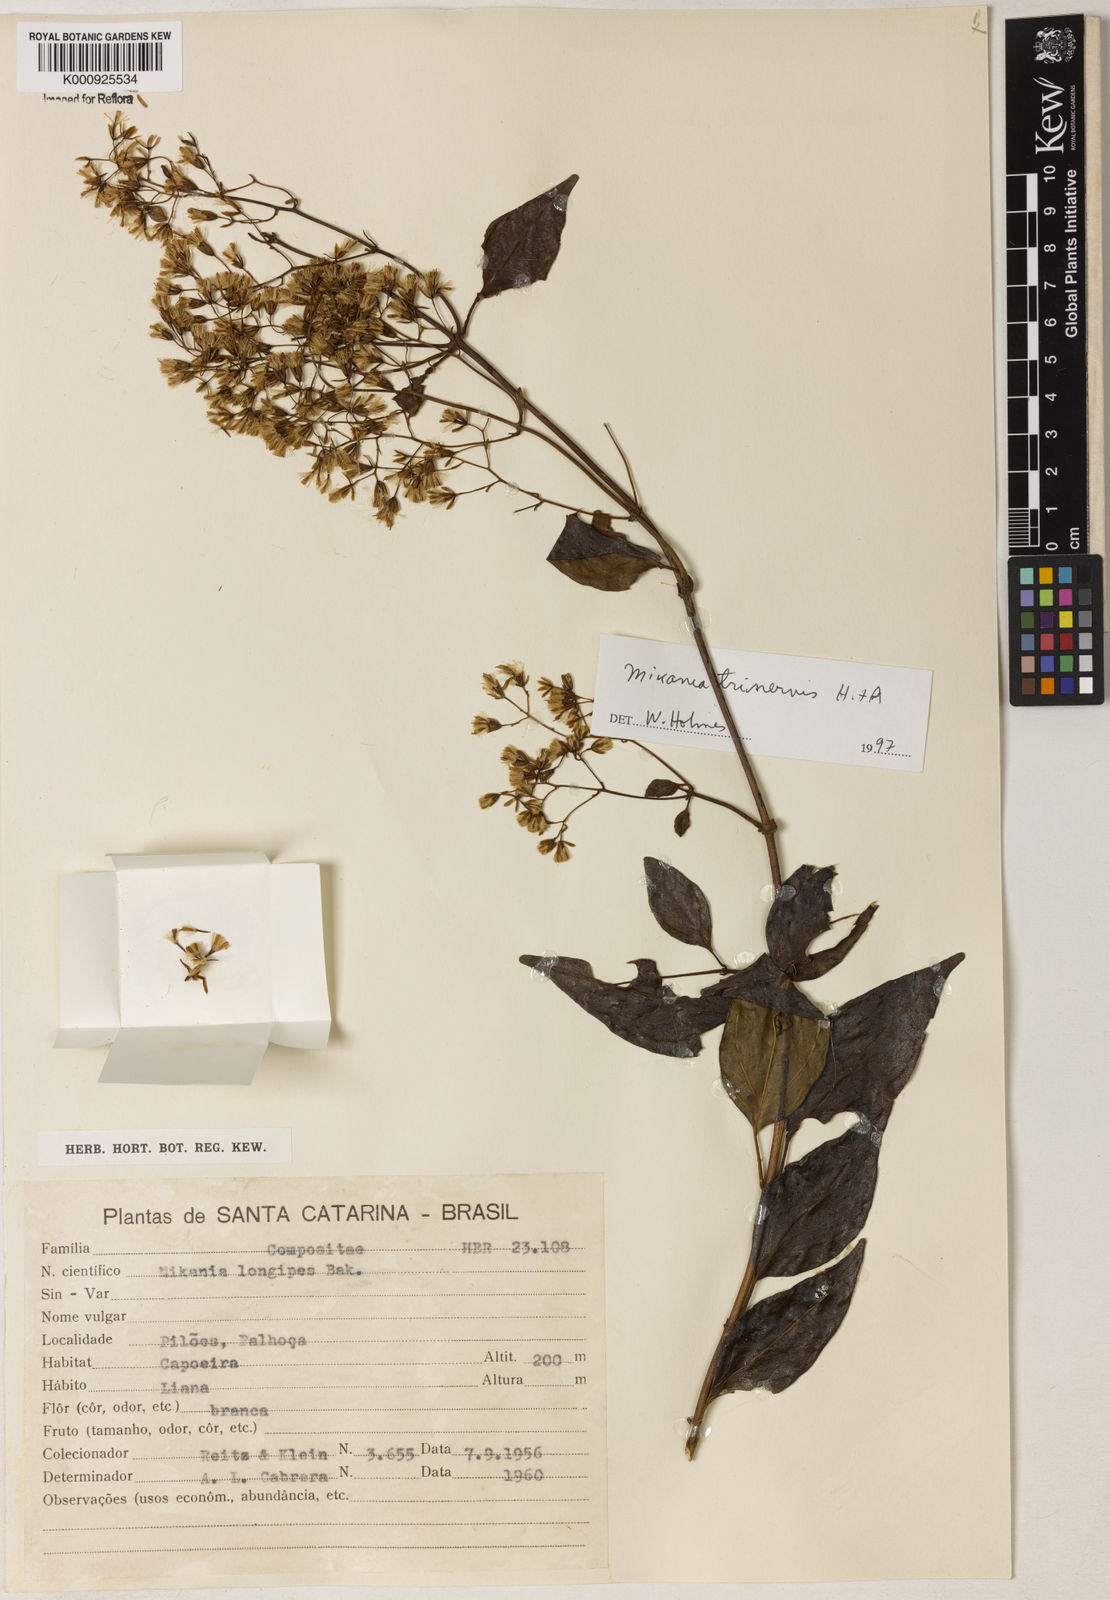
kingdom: Plantae
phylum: Tracheophyta
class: Magnoliopsida
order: Asterales
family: Asteraceae
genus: Mikania
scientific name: Mikania longipes
